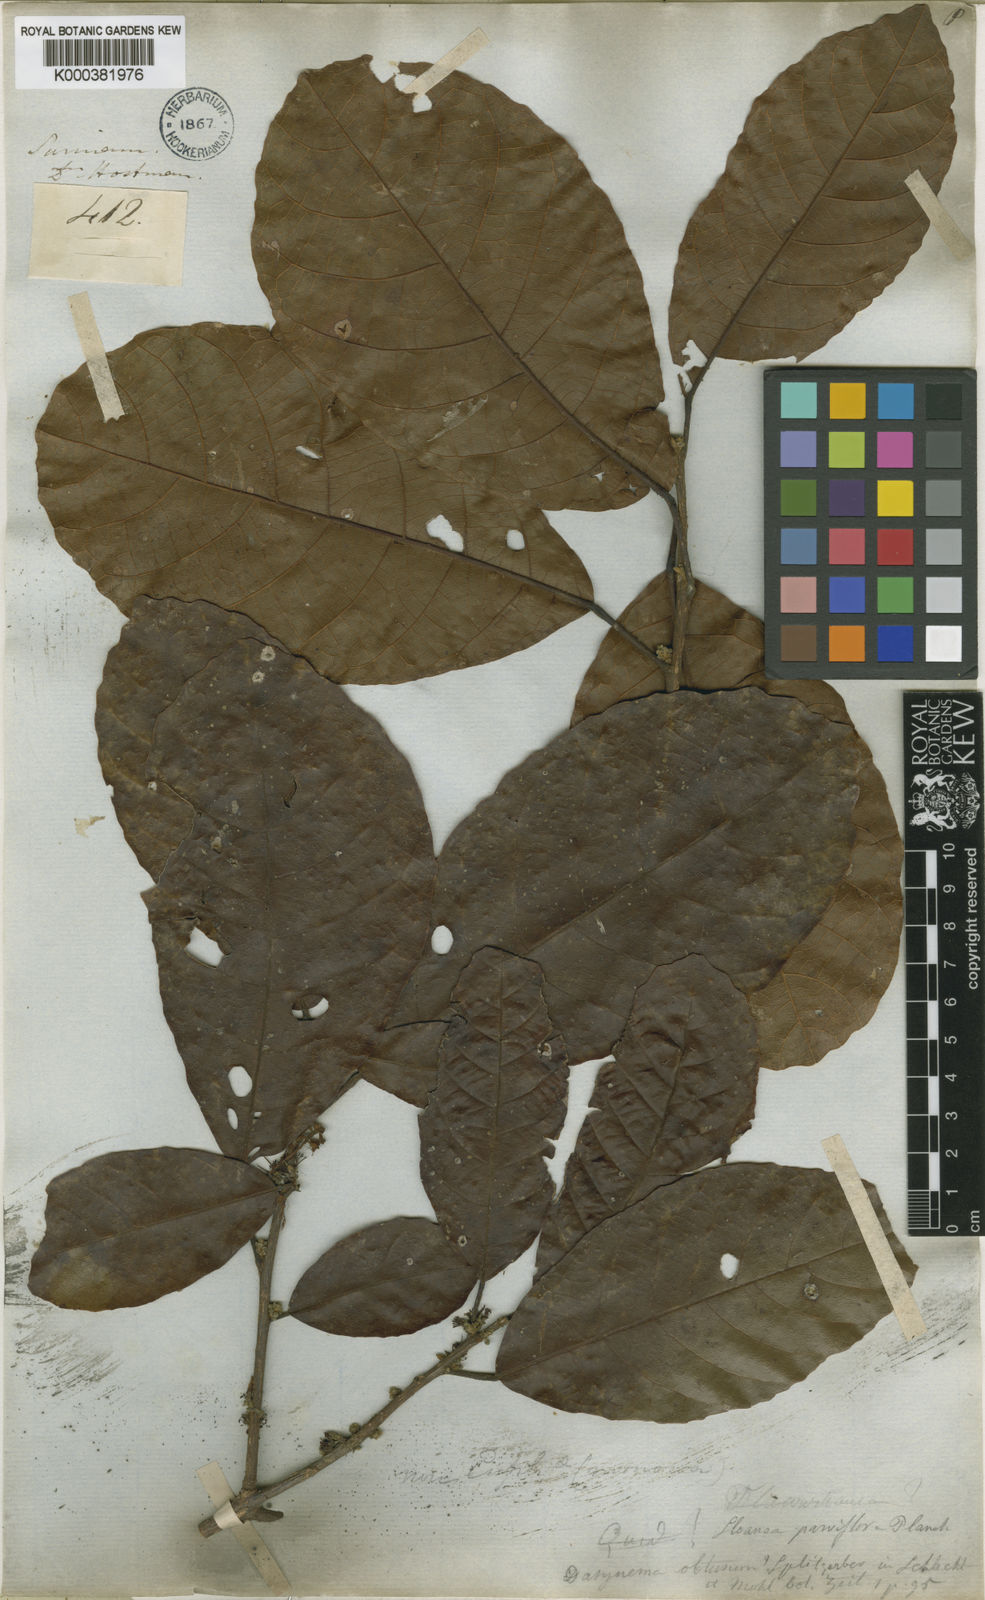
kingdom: Plantae
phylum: Tracheophyta
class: Magnoliopsida
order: Oxalidales
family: Elaeocarpaceae
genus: Sloanea
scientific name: Sloanea kappleriana
